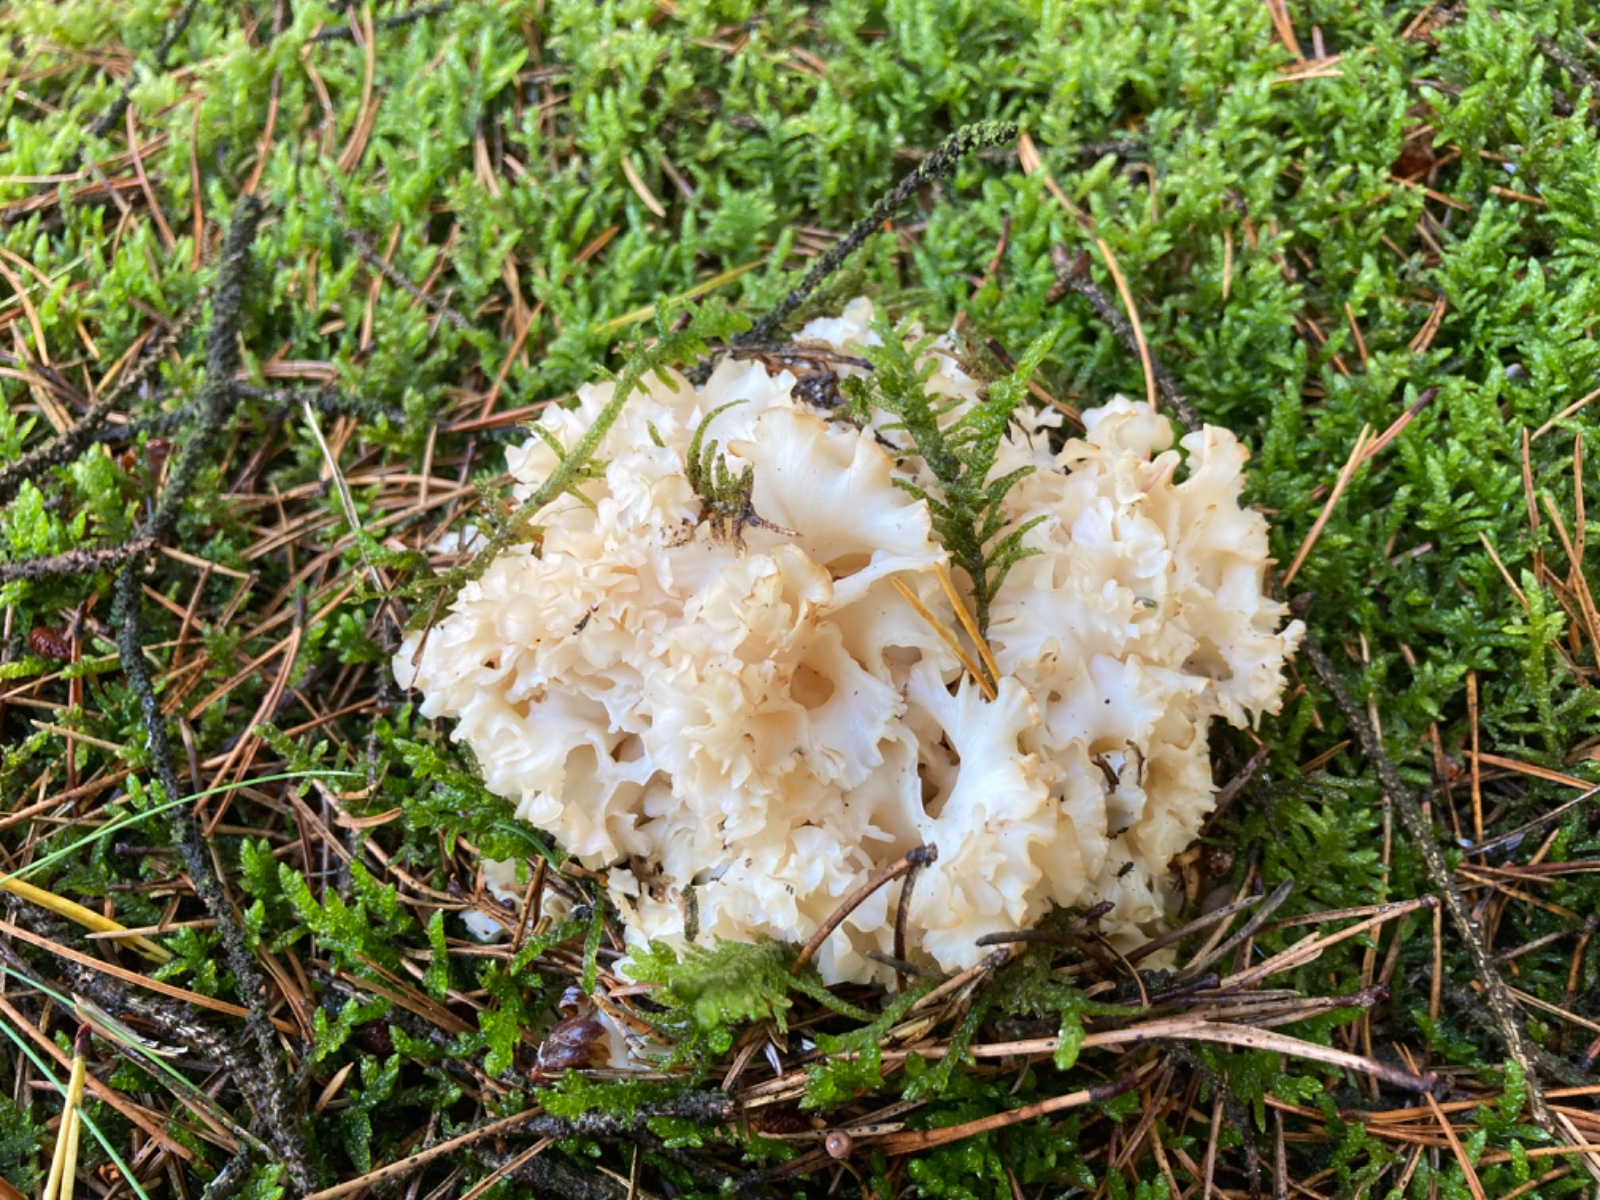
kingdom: Fungi
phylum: Basidiomycota
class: Agaricomycetes
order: Polyporales
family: Sparassidaceae
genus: Sparassis
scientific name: Sparassis crispa
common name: kruset blomkålssvamp
